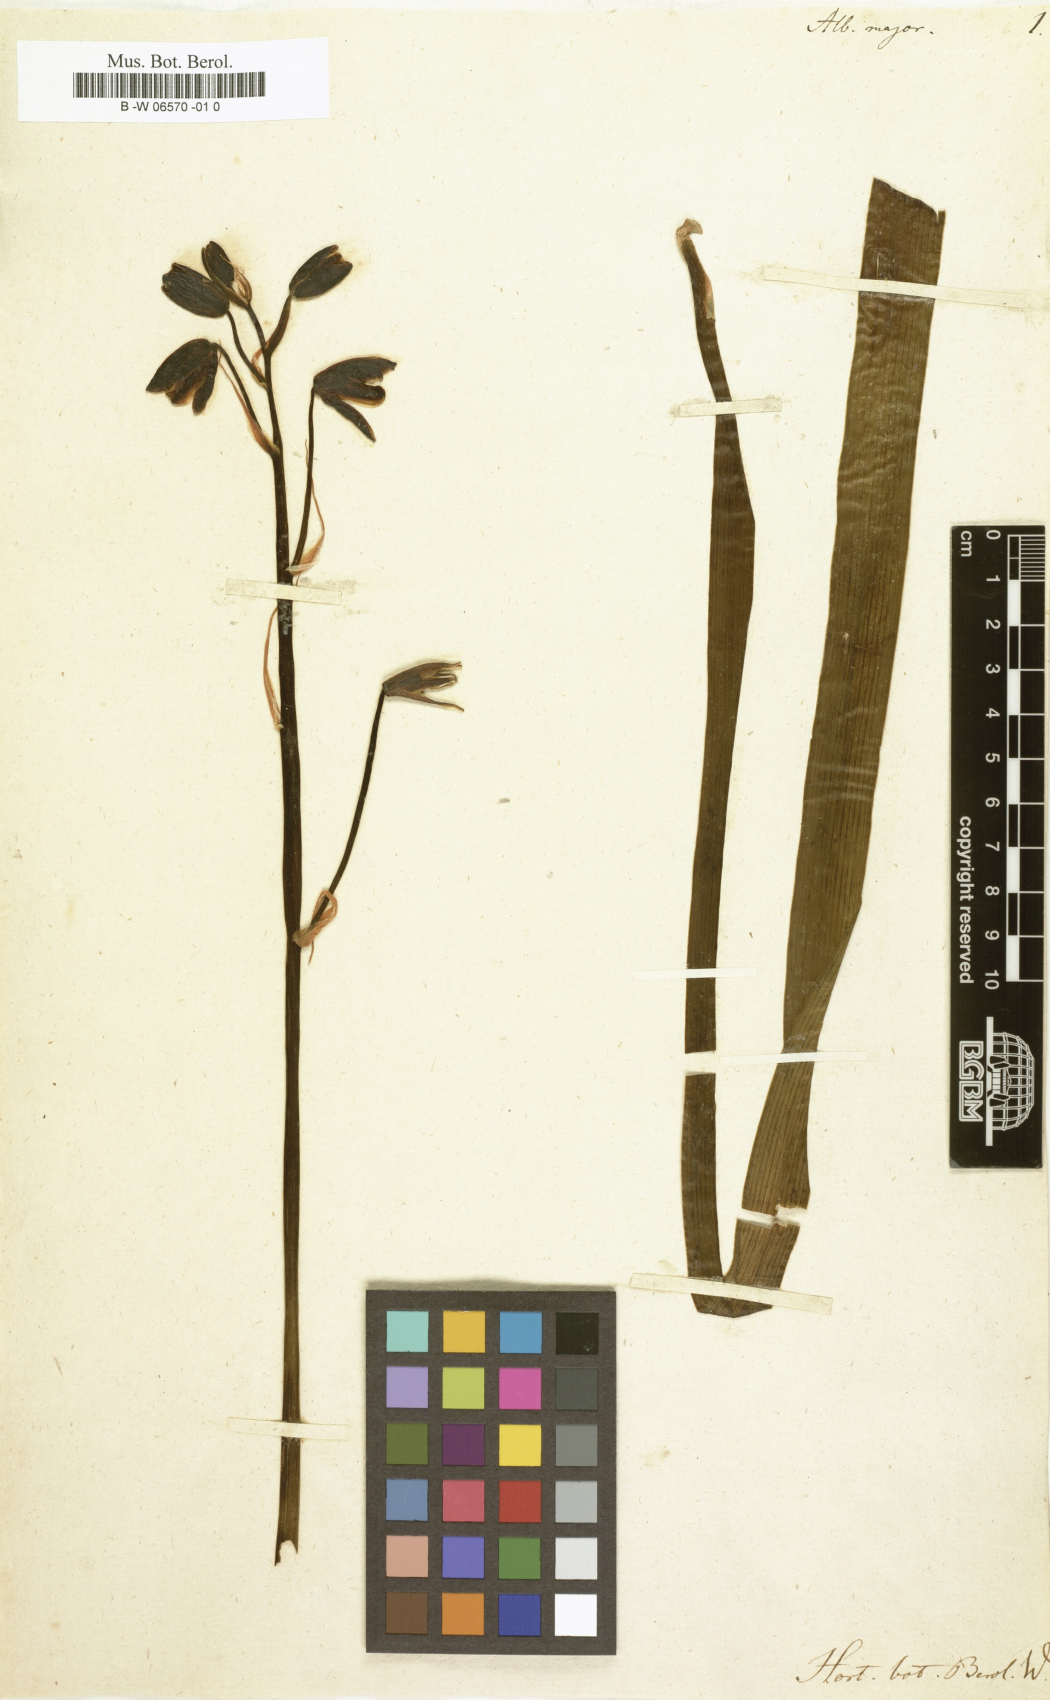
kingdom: Plantae
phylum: Tracheophyta
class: Liliopsida
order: Asparagales
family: Asparagaceae
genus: Albuca
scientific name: Albuca canadensis
